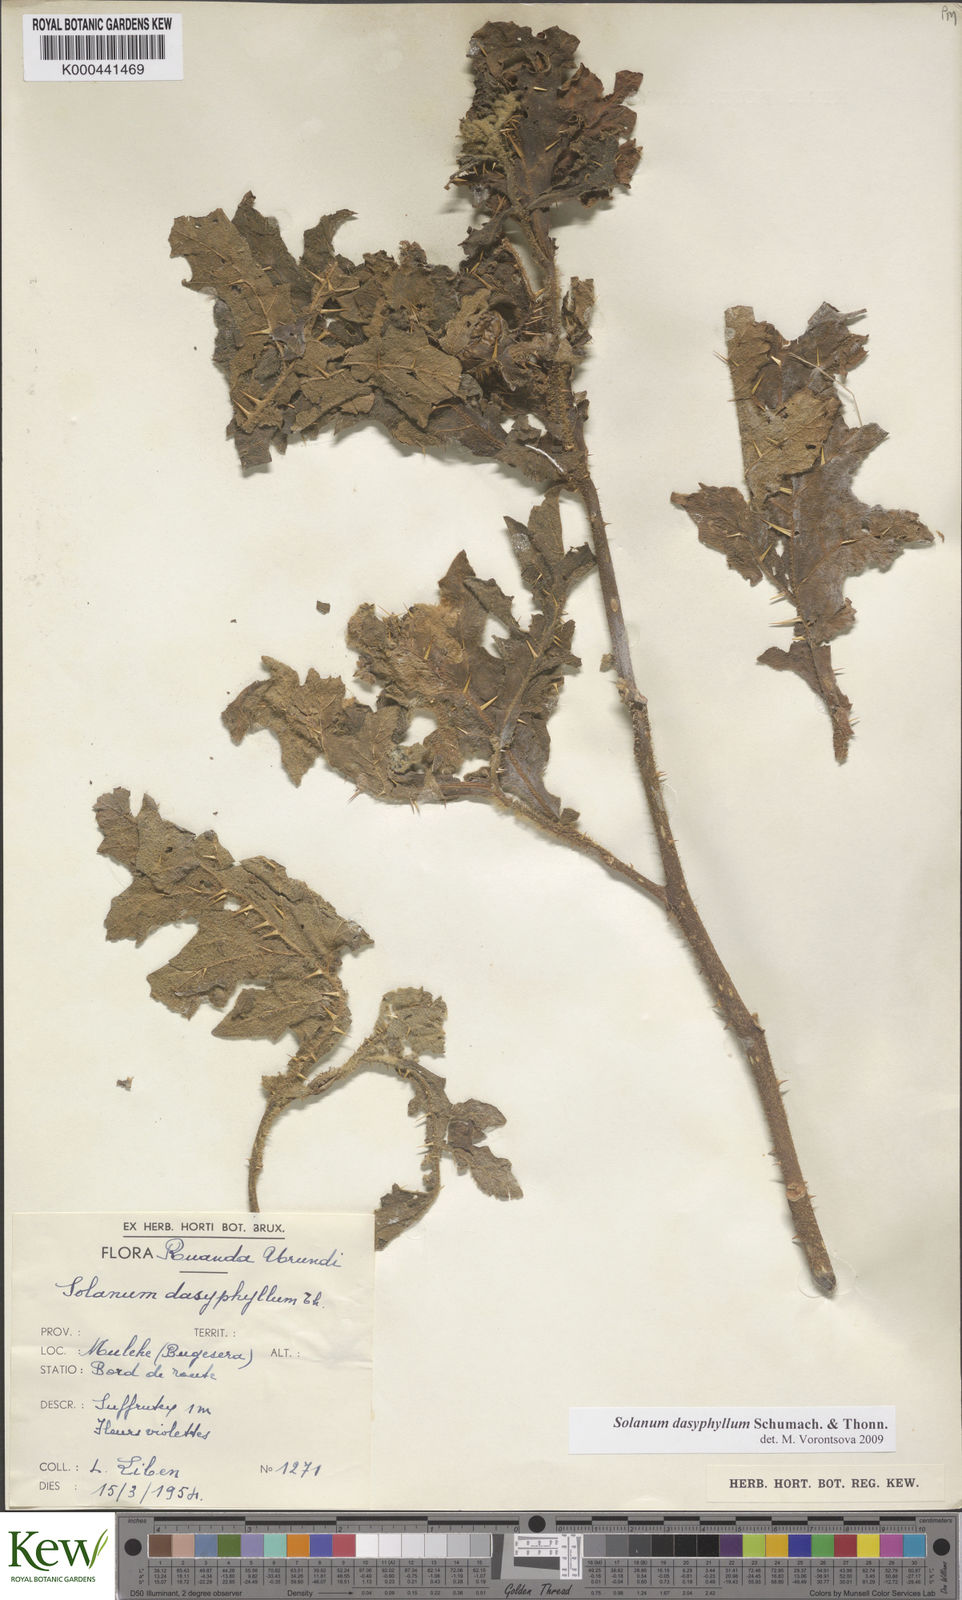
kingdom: Plantae
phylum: Tracheophyta
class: Magnoliopsida
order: Solanales
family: Solanaceae
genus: Solanum
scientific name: Solanum dasyphyllum
